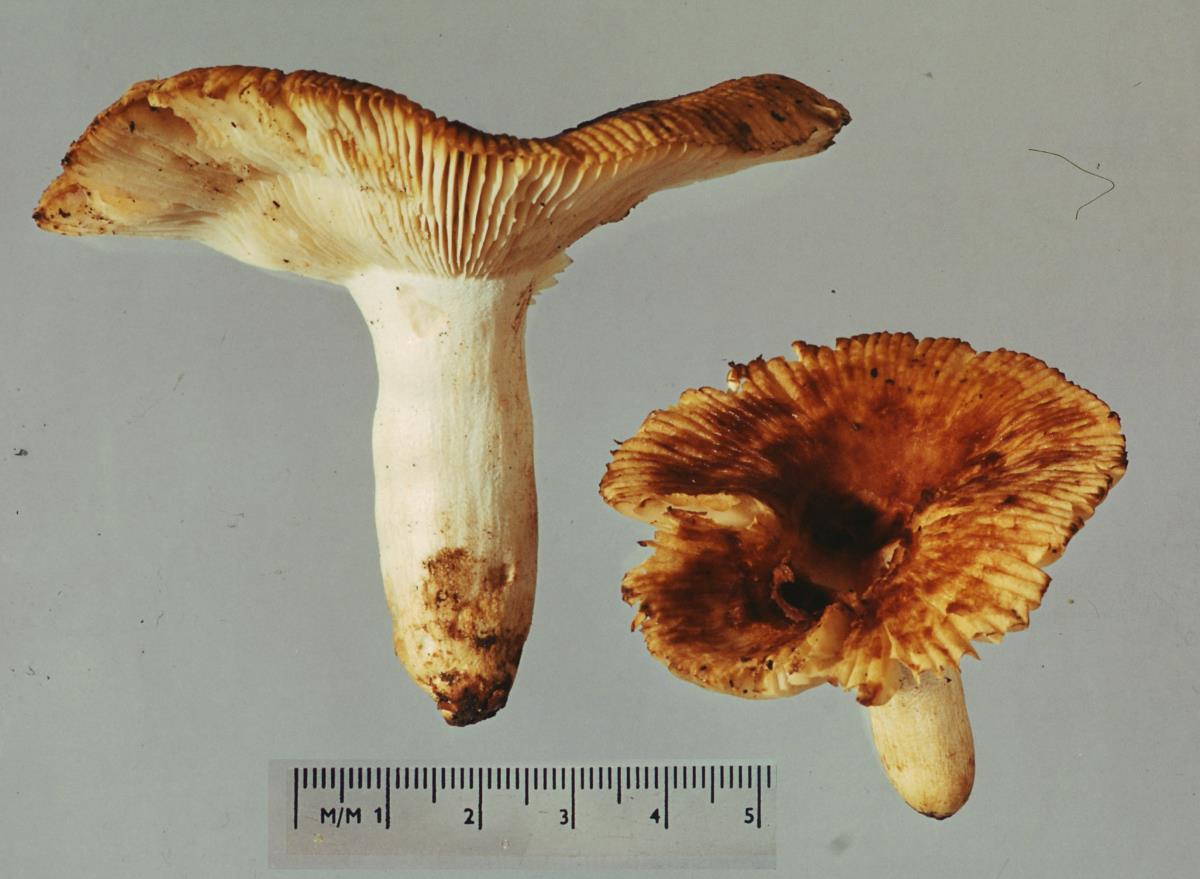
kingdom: Fungi
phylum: Basidiomycota
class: Agaricomycetes
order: Russulales
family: Russulaceae
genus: Russula
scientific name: Russula novae-zelandiae
